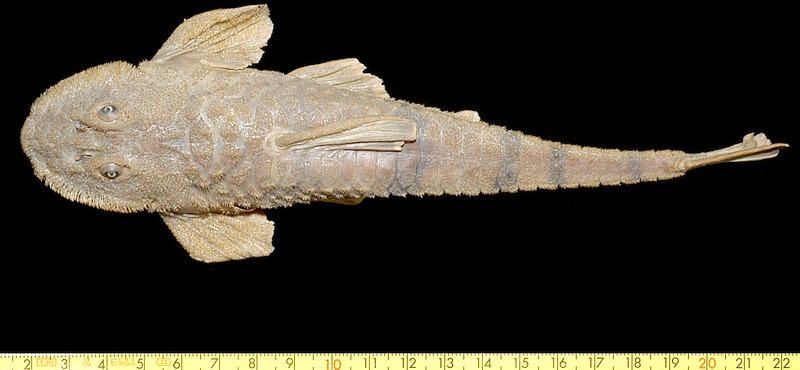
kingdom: Animalia
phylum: Chordata
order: Siluriformes
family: Loricariidae
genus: Rineloricaria
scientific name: Rineloricaria jaraguensis
